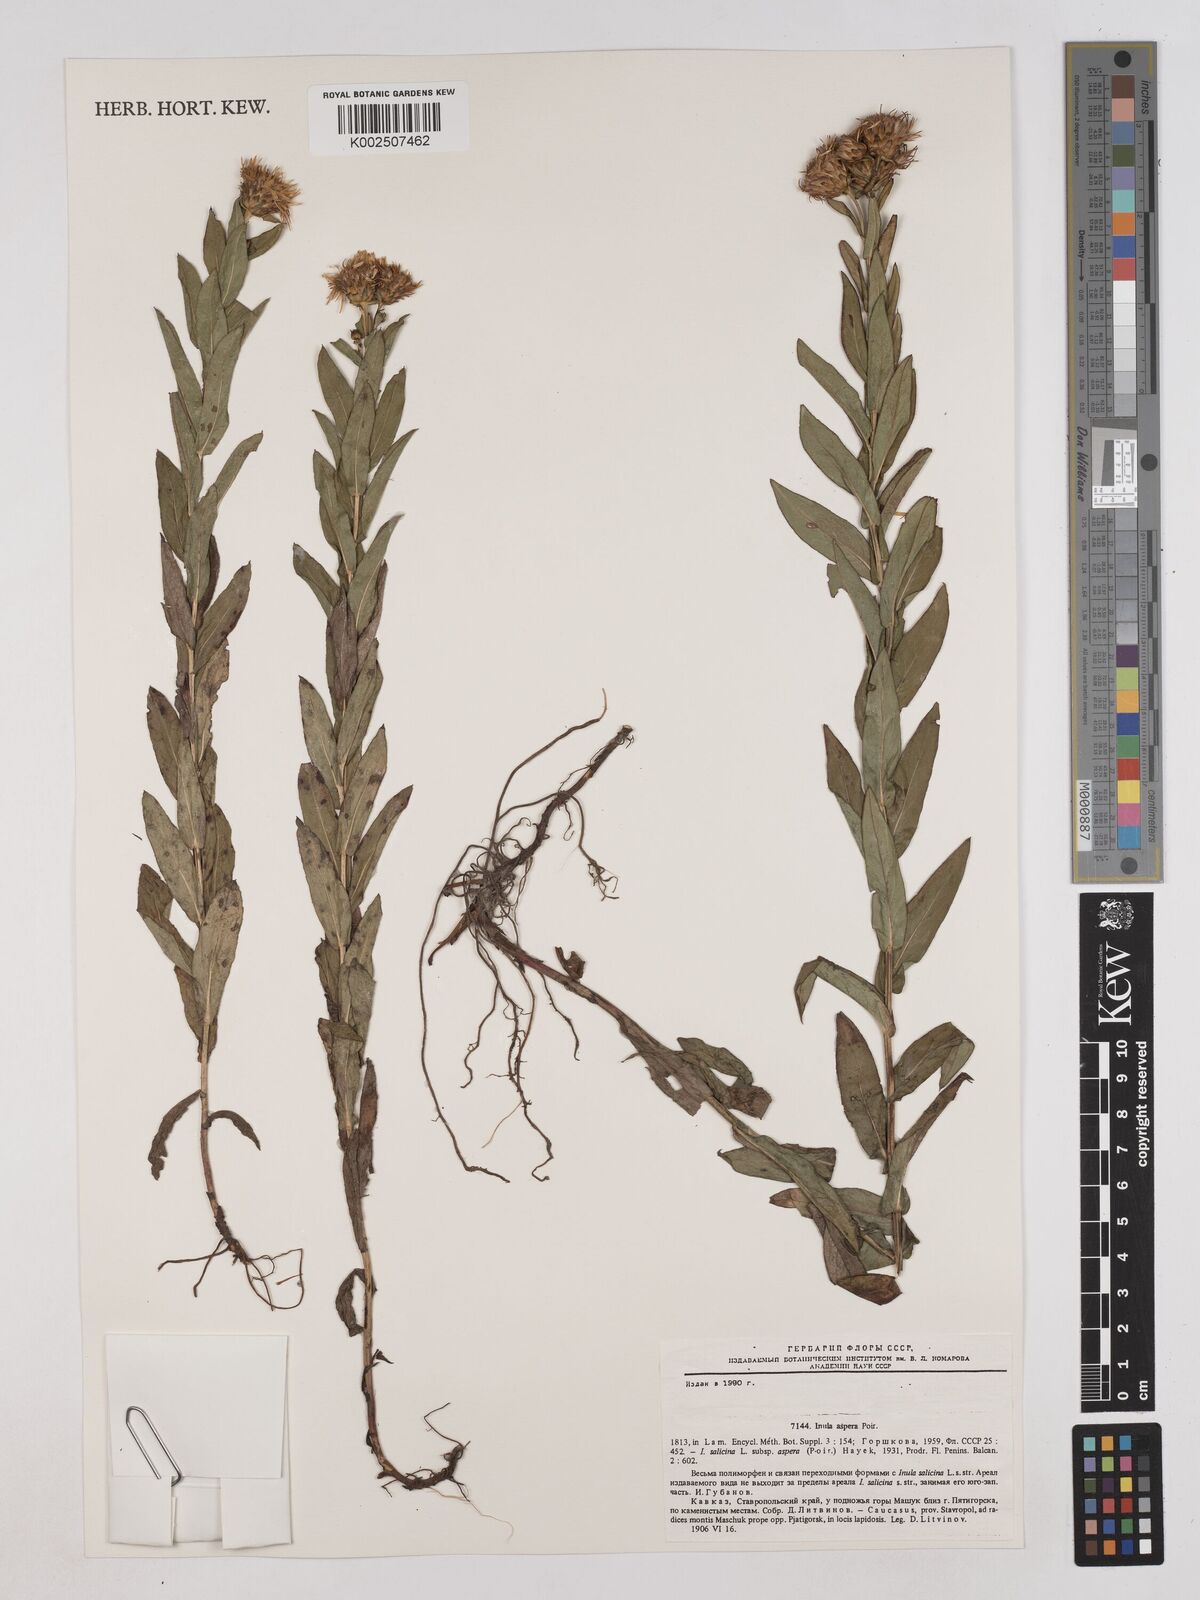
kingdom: Plantae
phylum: Tracheophyta
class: Magnoliopsida
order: Asterales
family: Asteraceae
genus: Pentanema
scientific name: Pentanema salicinum
